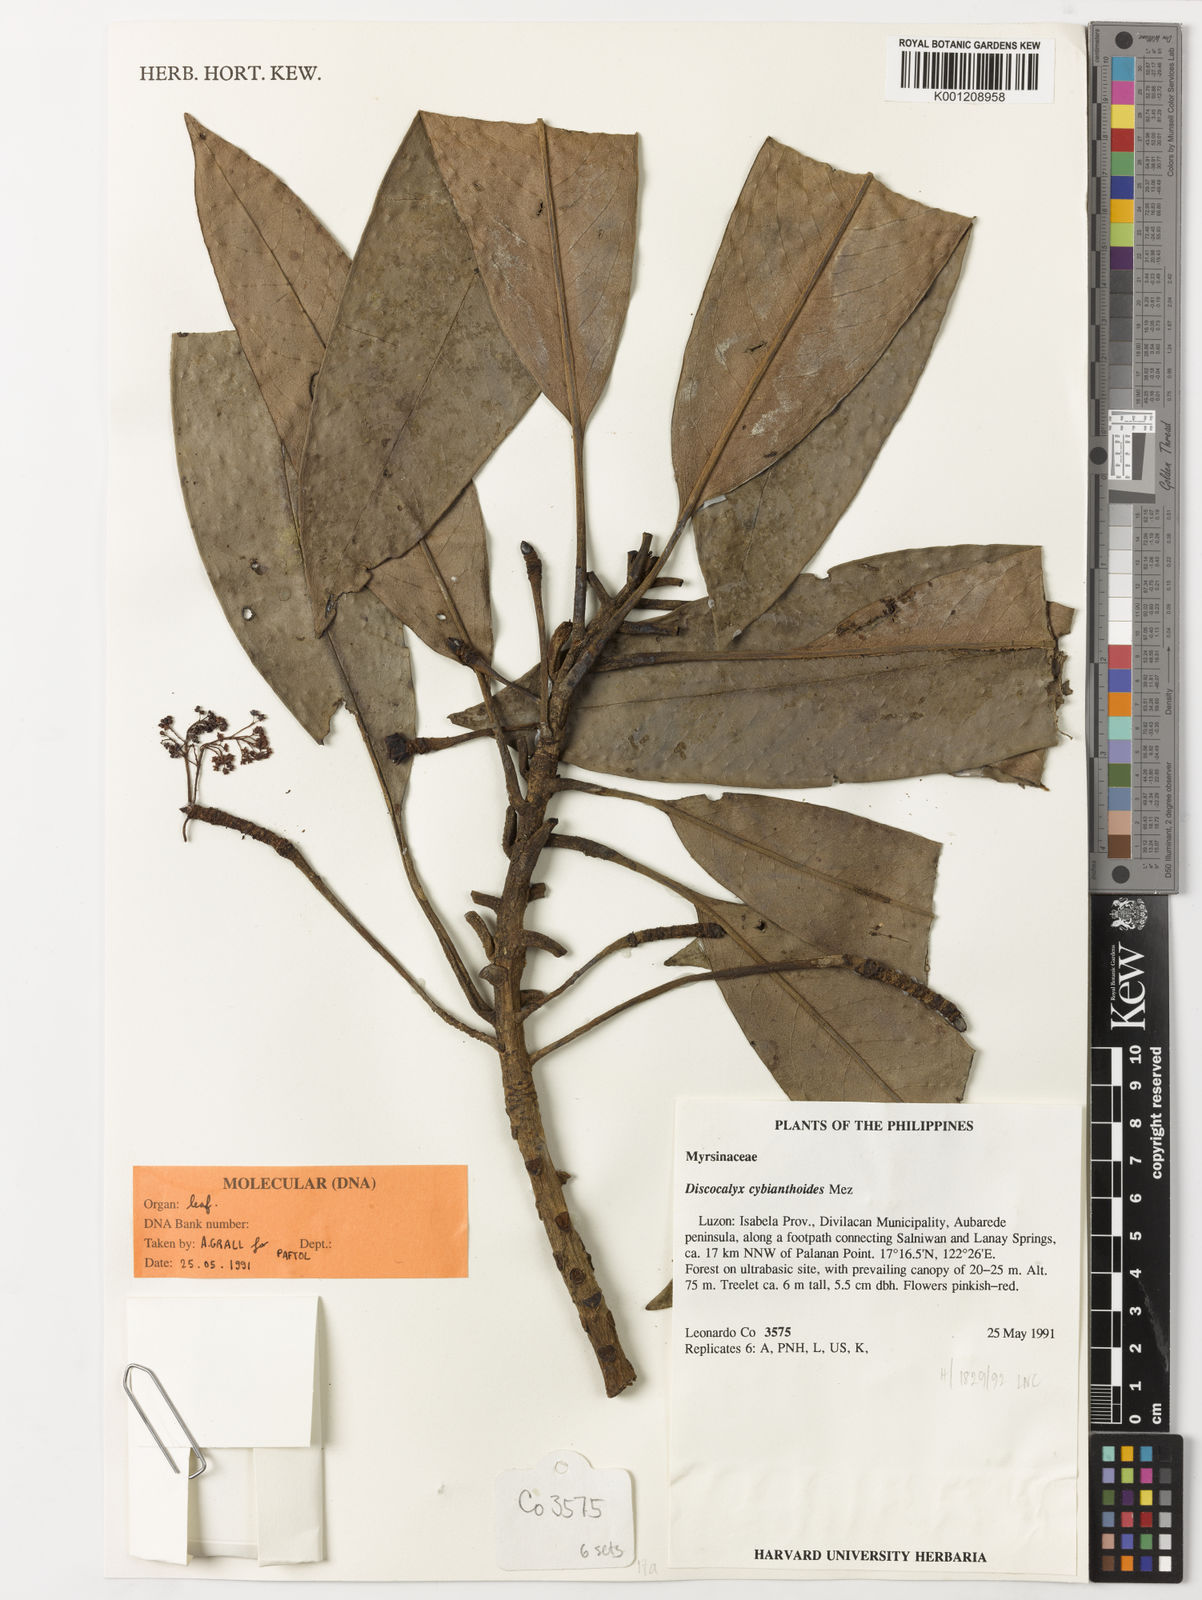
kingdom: Plantae
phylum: Tracheophyta
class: Magnoliopsida
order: Ericales
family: Primulaceae
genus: Discocalyx
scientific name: Discocalyx cybianthoides
